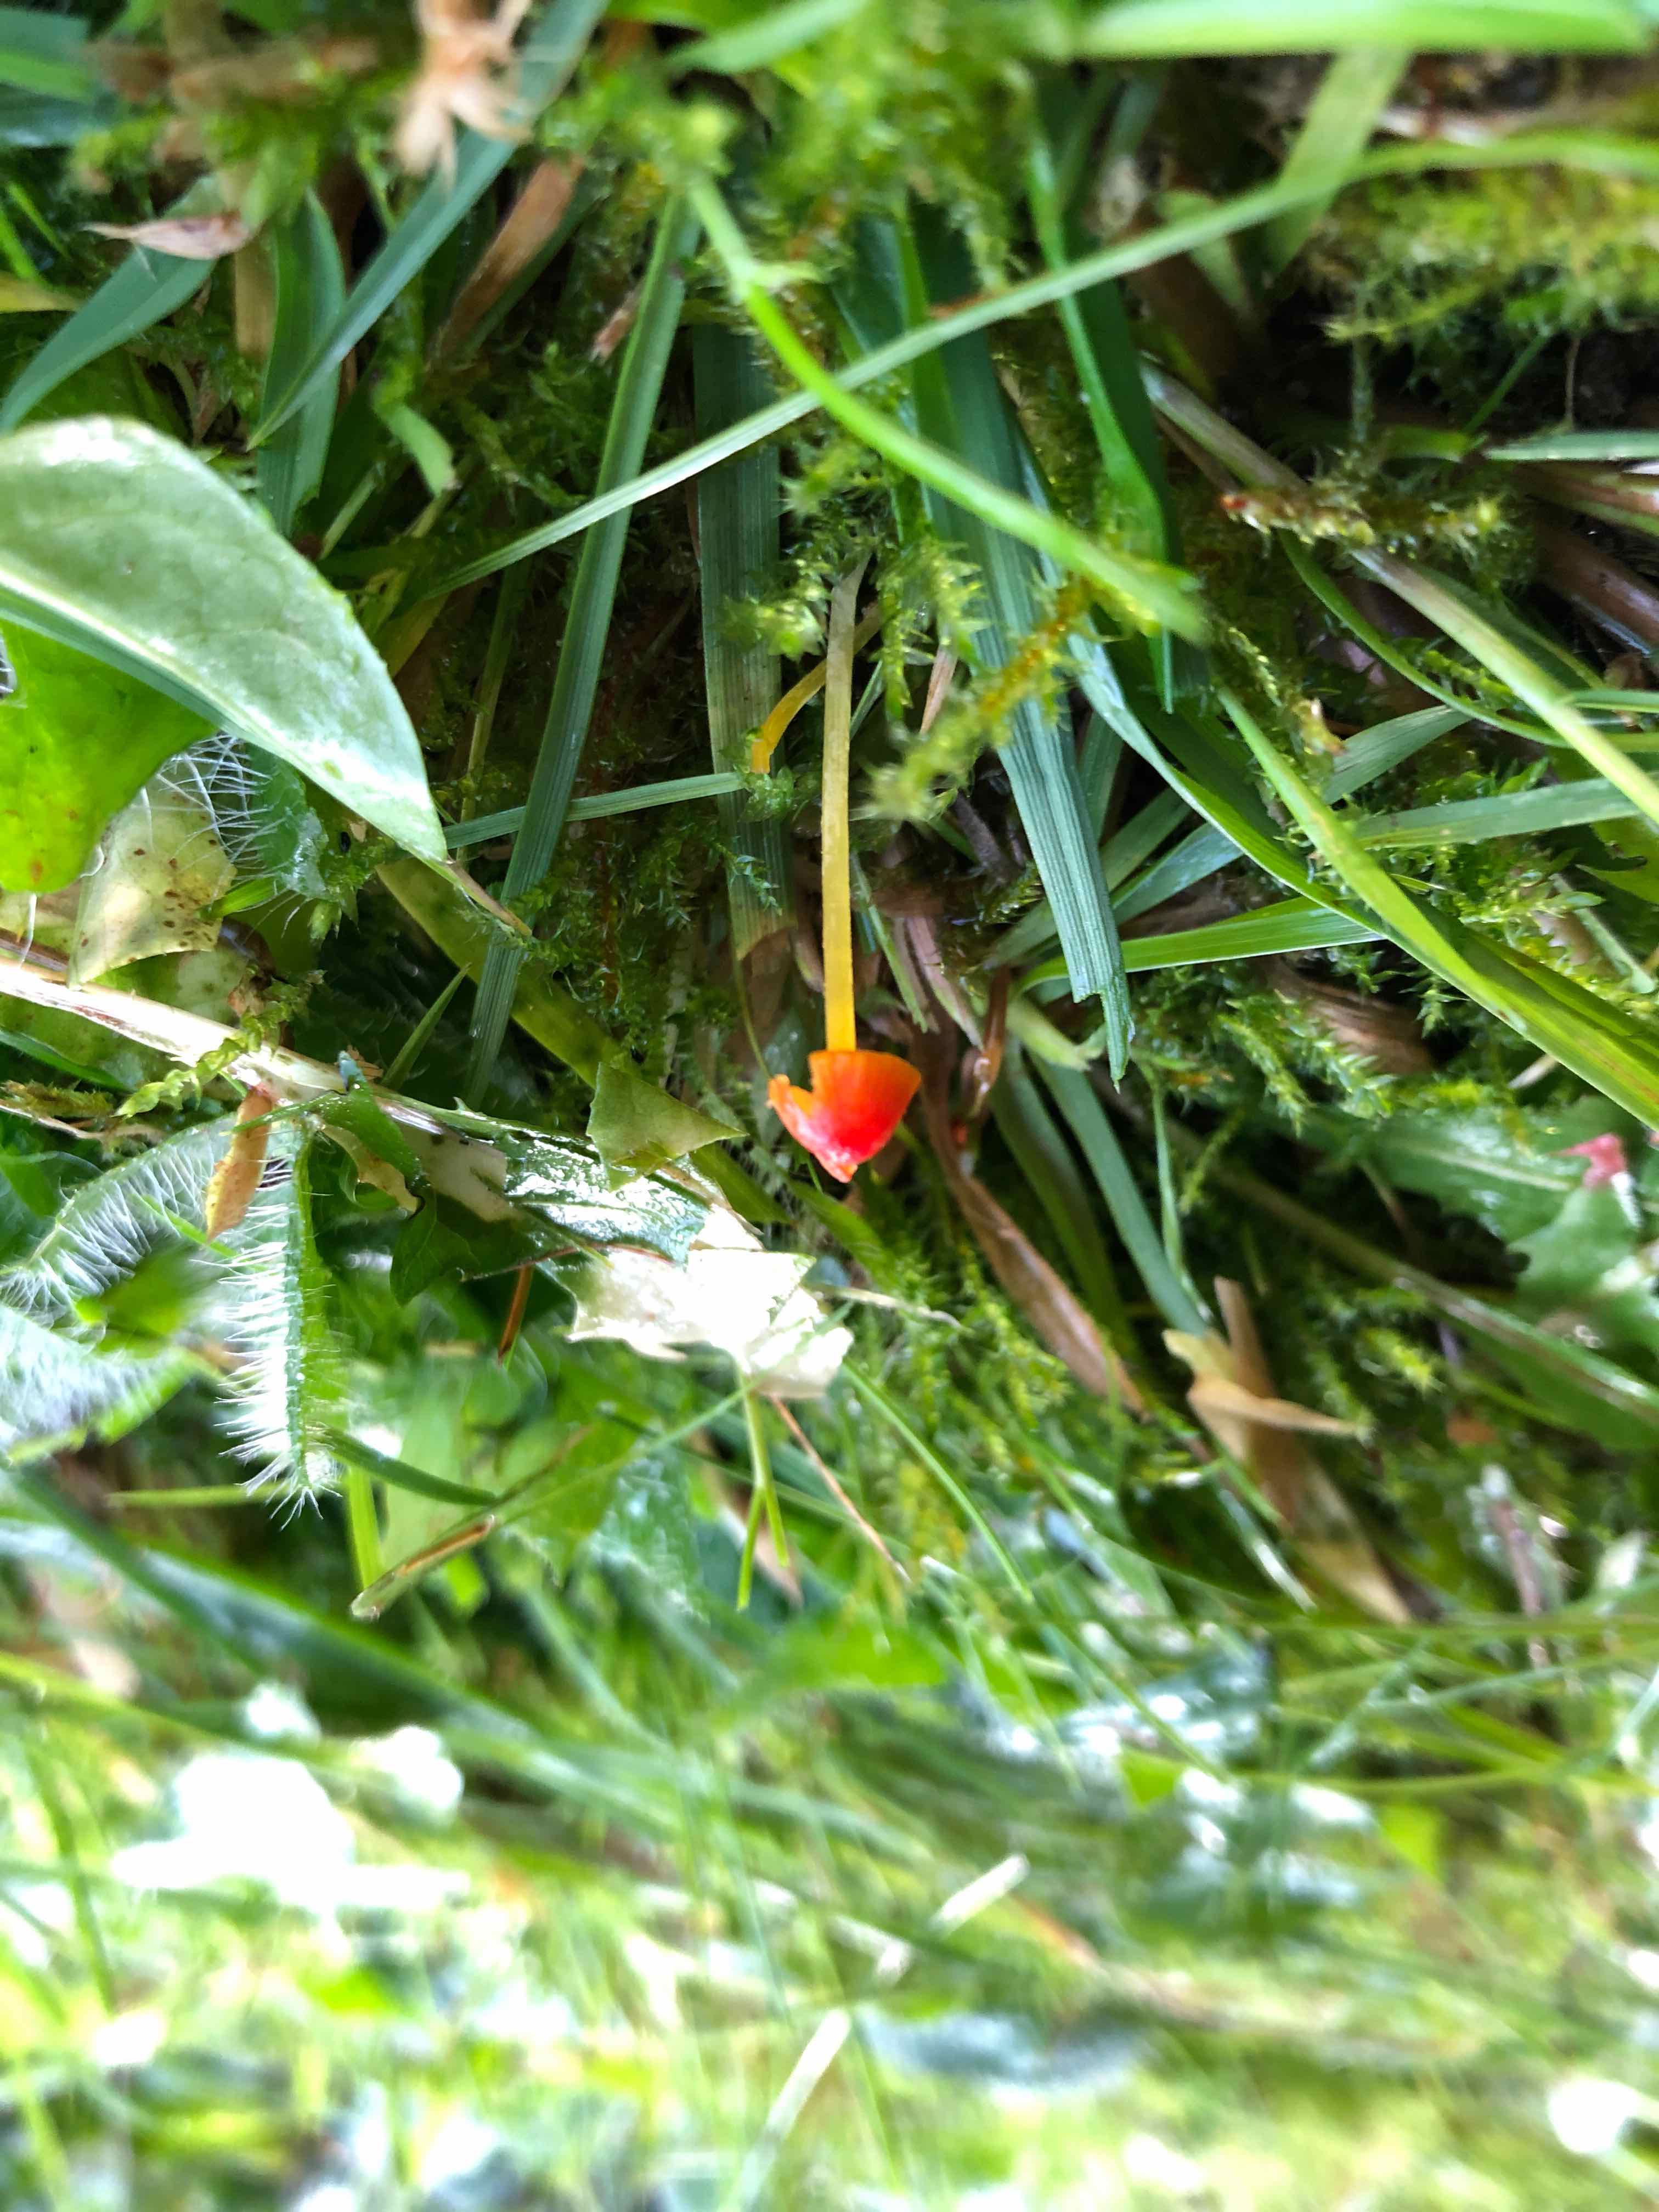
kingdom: Fungi
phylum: Basidiomycota
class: Agaricomycetes
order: Agaricales
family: Mycenaceae
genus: Mycena
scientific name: Mycena acicula
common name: orange huesvamp
